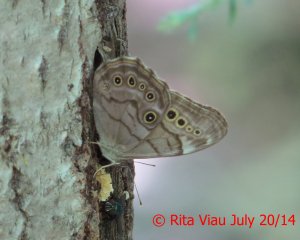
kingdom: Animalia
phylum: Arthropoda
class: Insecta
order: Lepidoptera
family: Nymphalidae
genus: Lethe
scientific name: Lethe anthedon
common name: Northern Pearly-Eye
